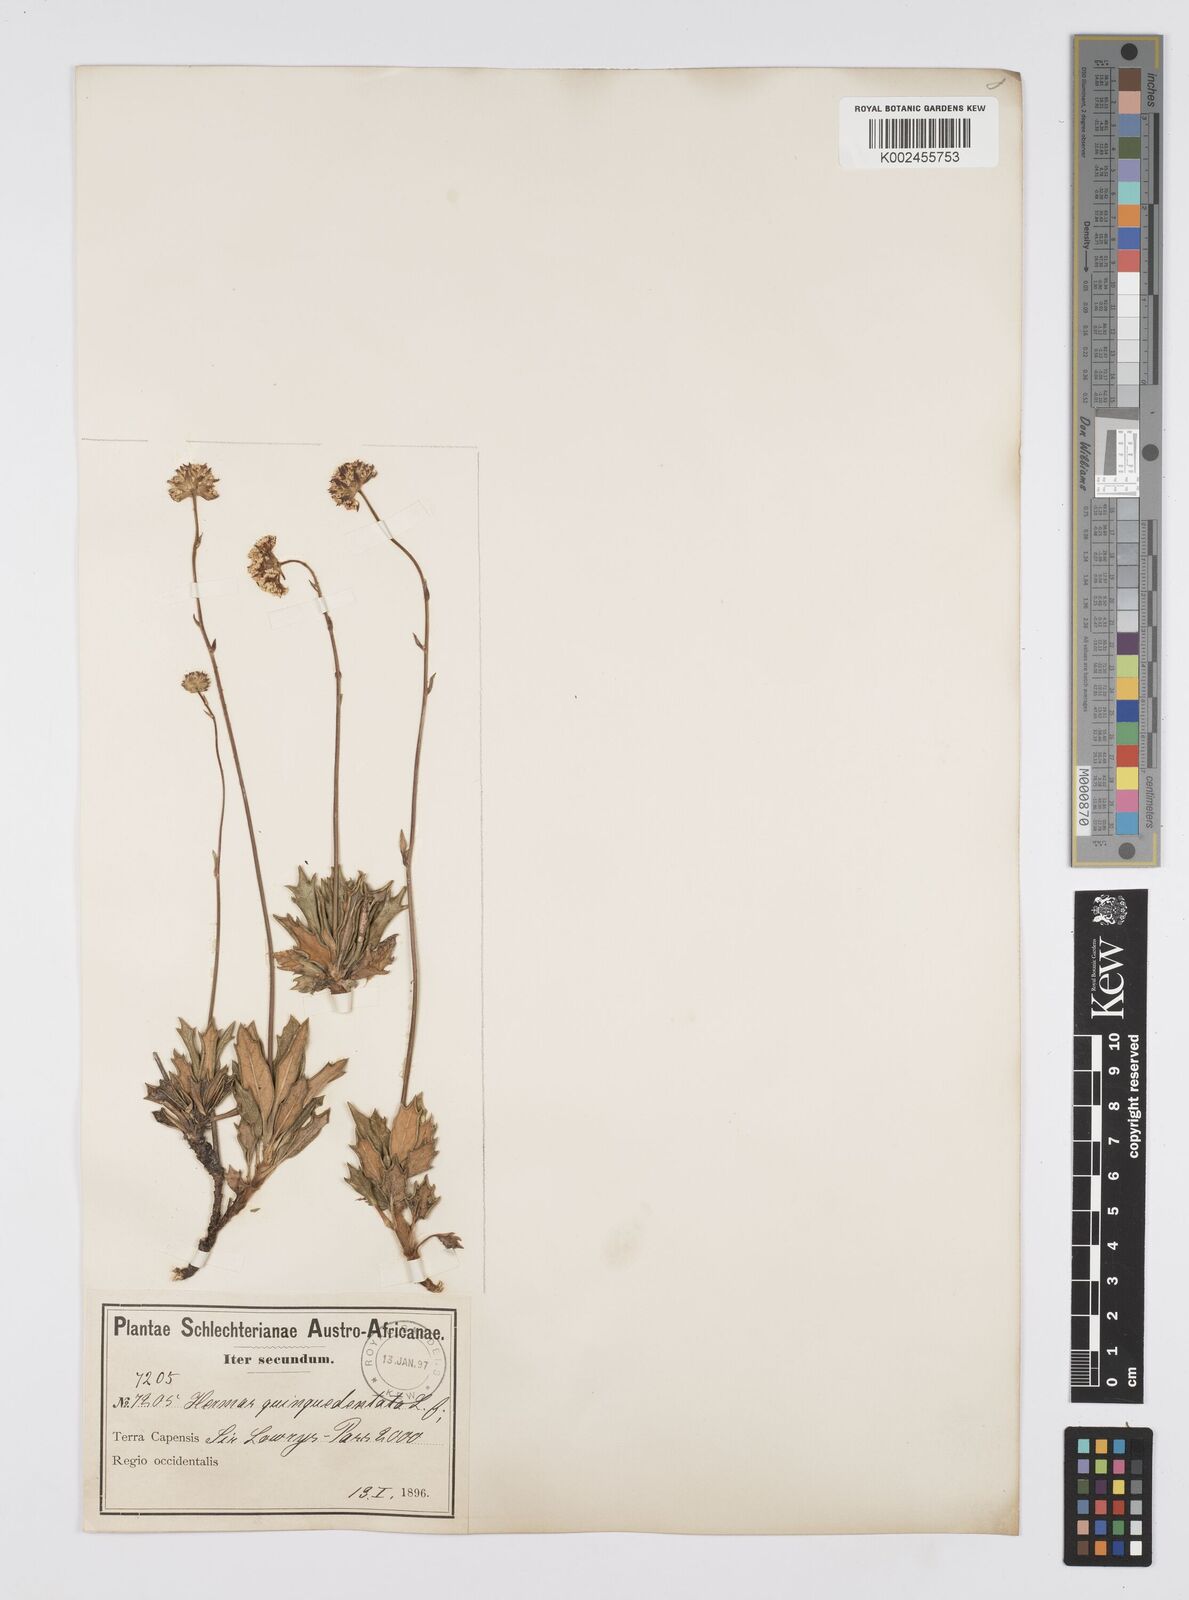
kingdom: Plantae
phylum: Tracheophyta
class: Magnoliopsida
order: Apiales
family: Apiaceae
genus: Hermas
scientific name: Hermas quinquedentata
